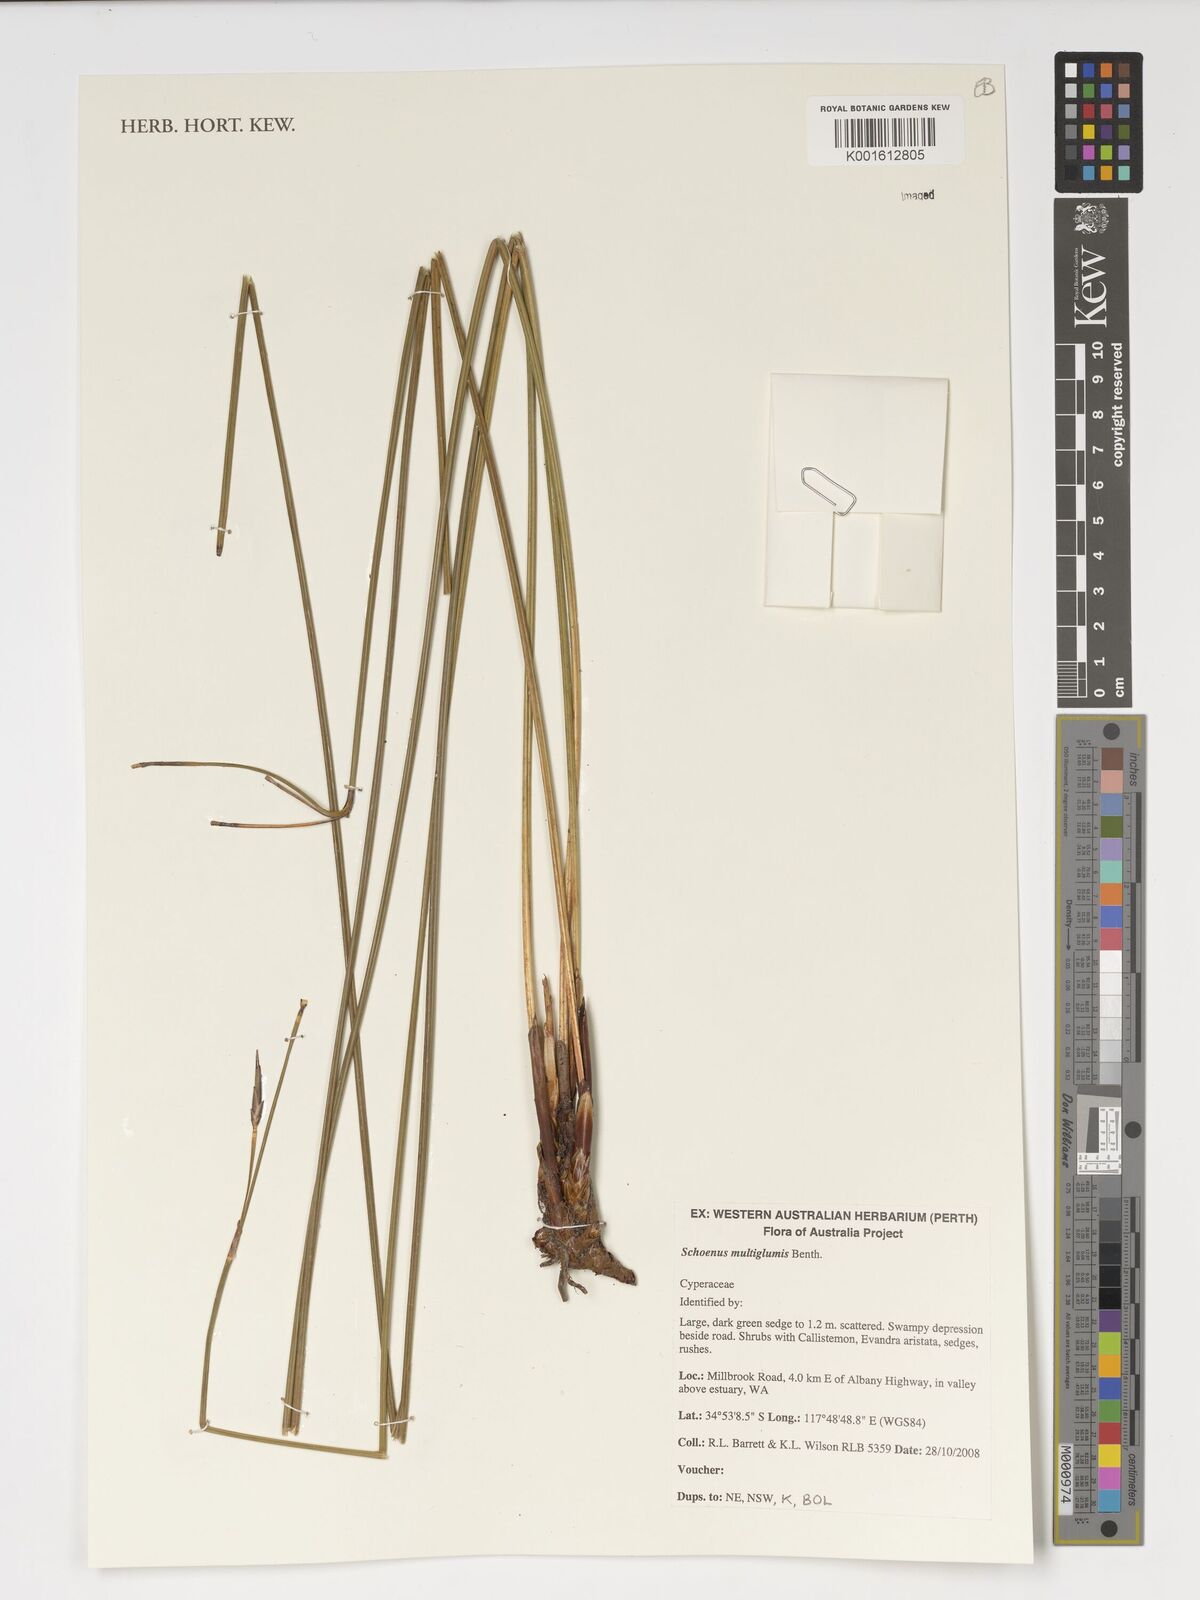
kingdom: Plantae
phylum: Tracheophyta
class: Liliopsida
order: Poales
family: Cyperaceae
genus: Schoenus
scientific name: Schoenus multiglumis
